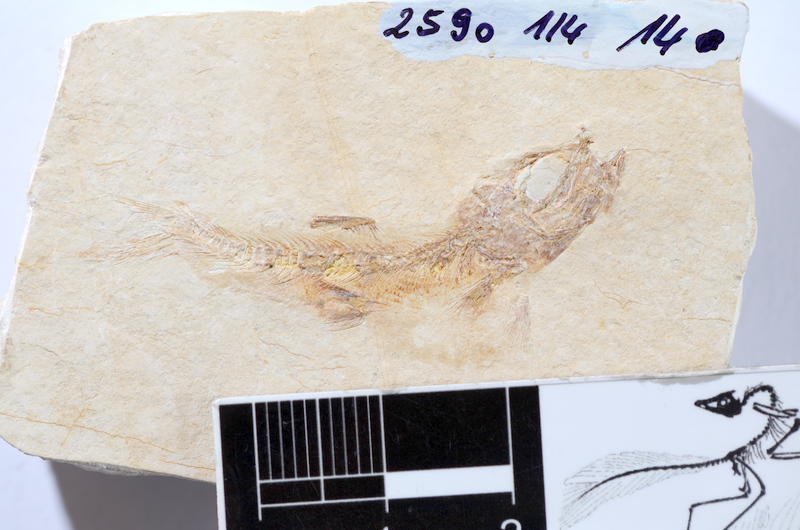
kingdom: Animalia
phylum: Chordata
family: Ascalaboidae
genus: Tharsis
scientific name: Tharsis dubius
